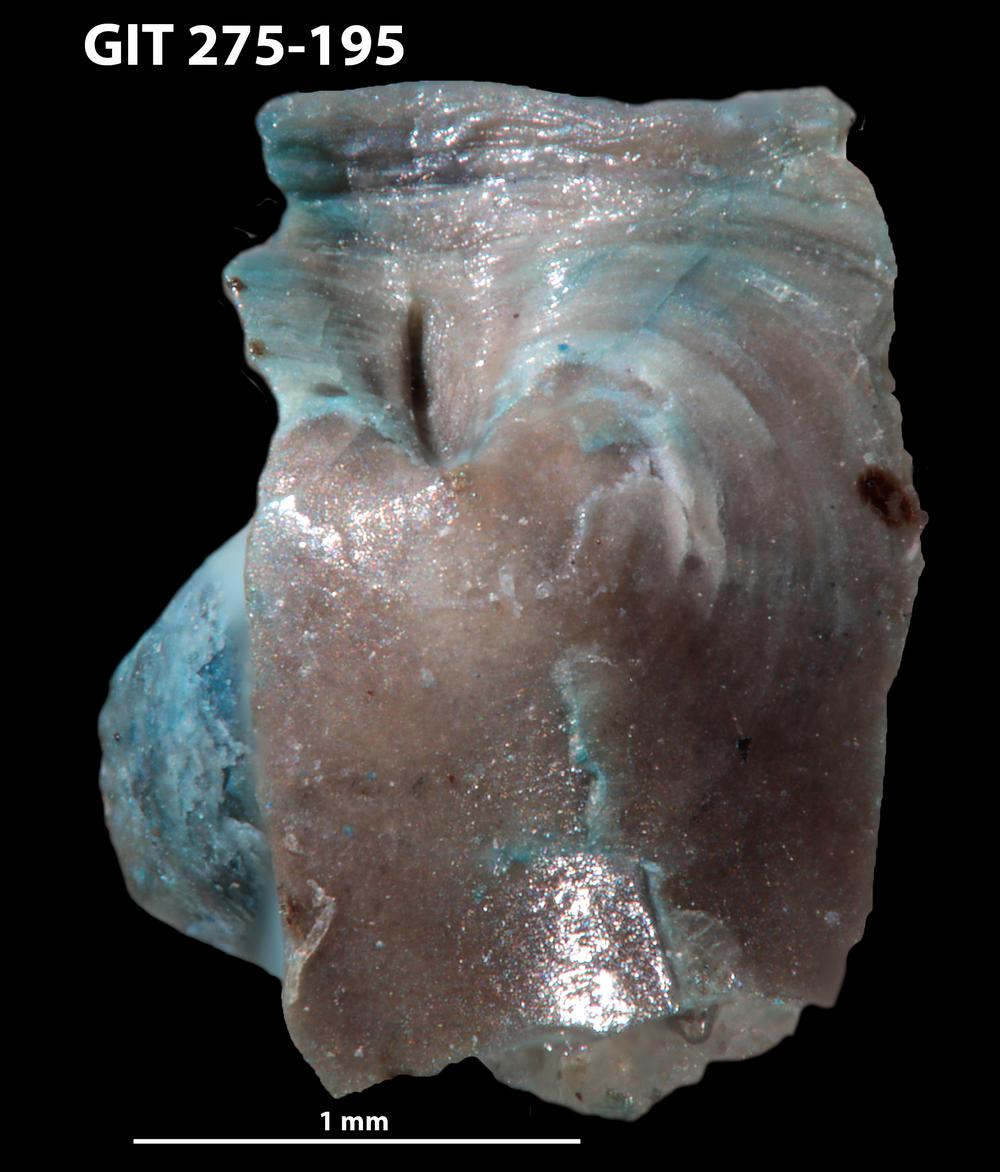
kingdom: Animalia
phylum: Brachiopoda
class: Lingulata
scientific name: Lingulata
